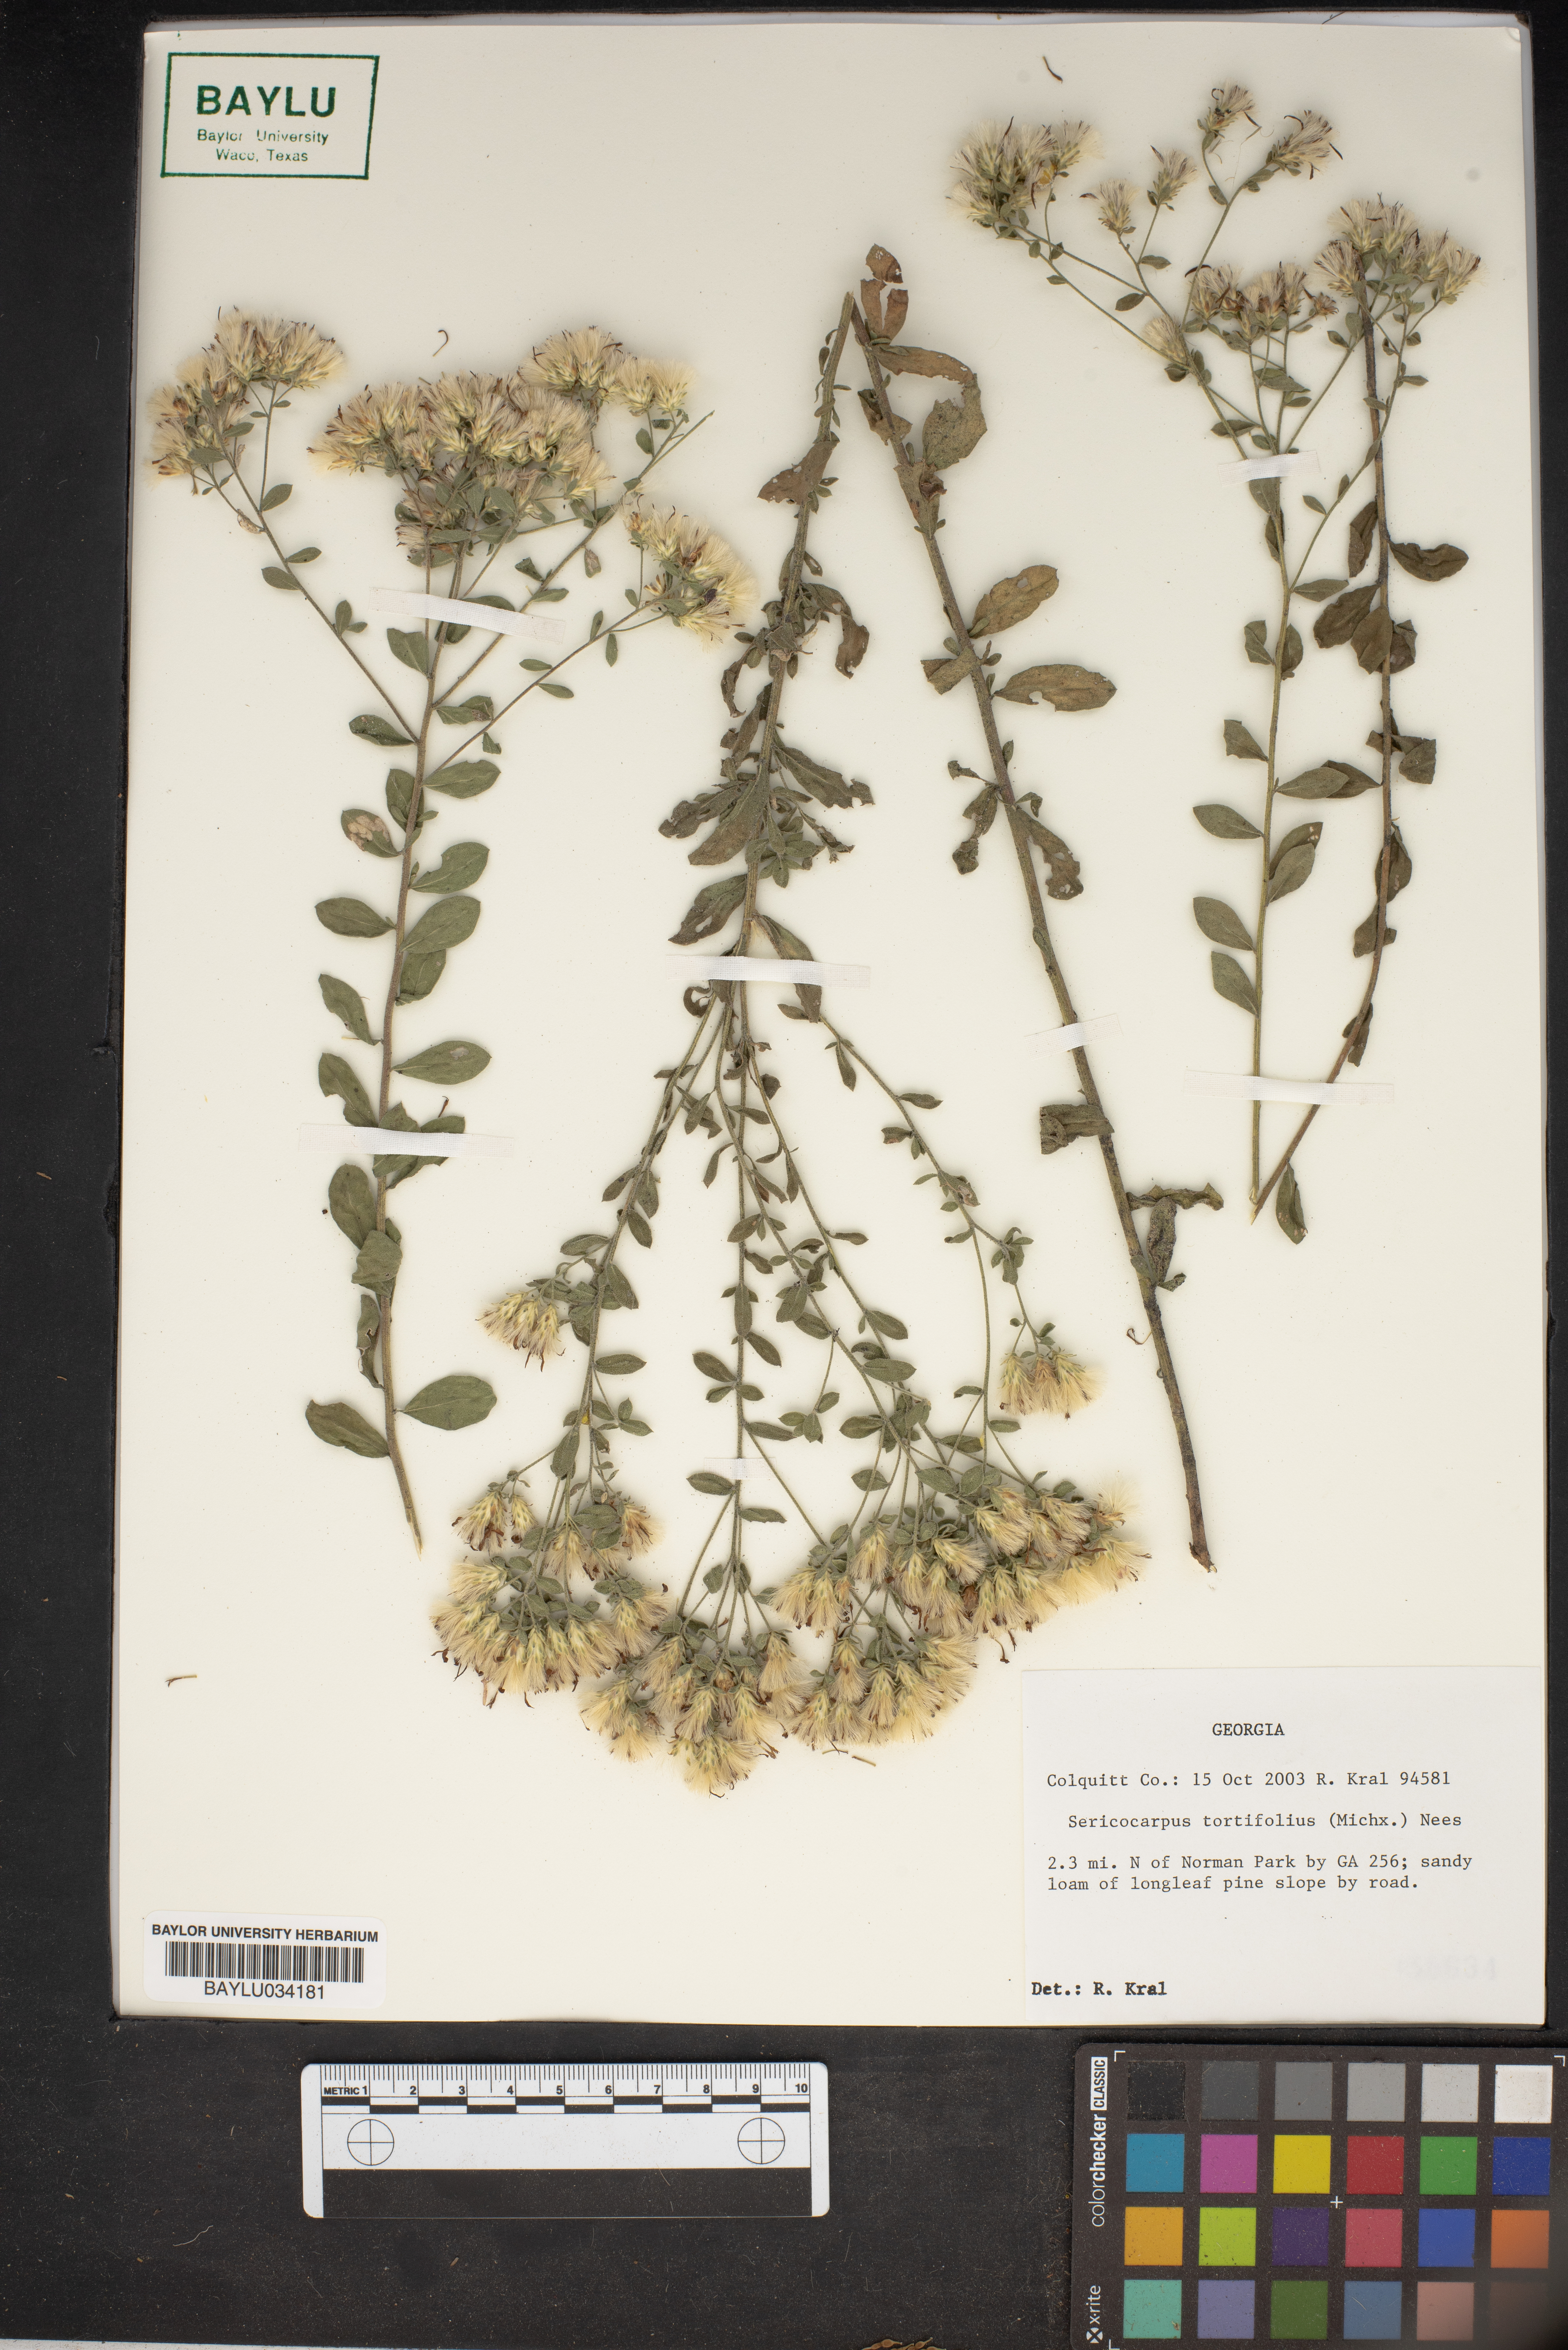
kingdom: Plantae
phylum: Tracheophyta
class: Magnoliopsida
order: Asterales
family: Asteraceae
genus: Sericocarpus
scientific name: Sericocarpus tortifolius
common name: Dixie aster
